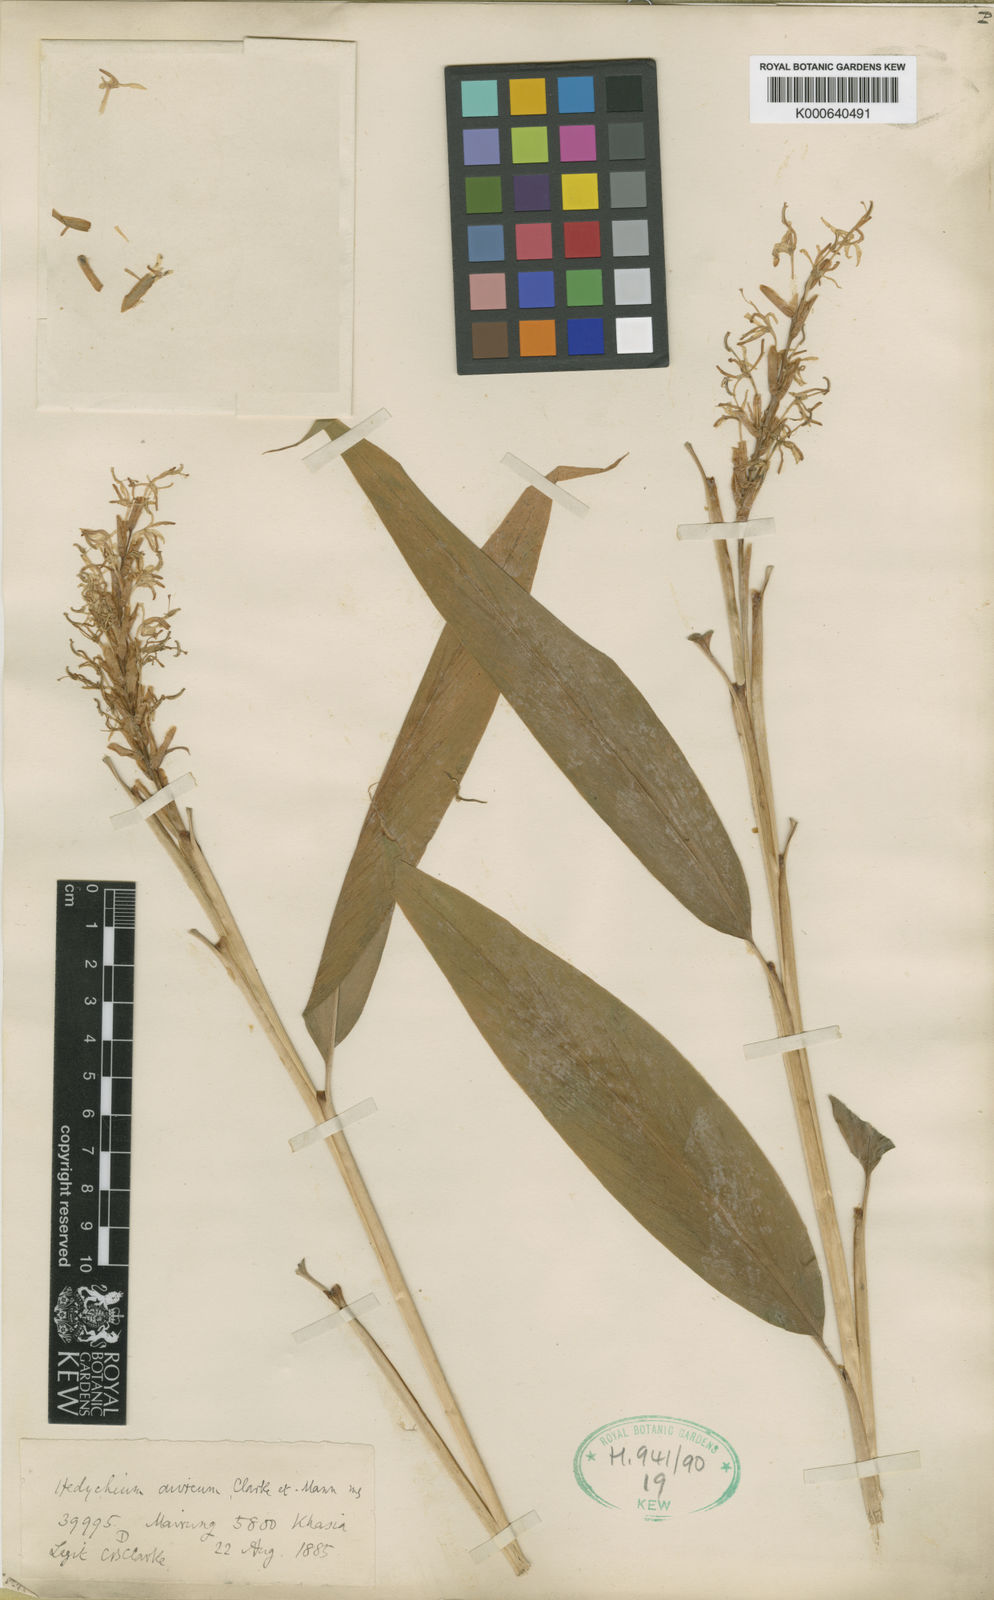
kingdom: Plantae
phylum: Tracheophyta
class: Liliopsida
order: Zingiberales
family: Zingiberaceae
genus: Hedychium
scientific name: Hedychium aureum
